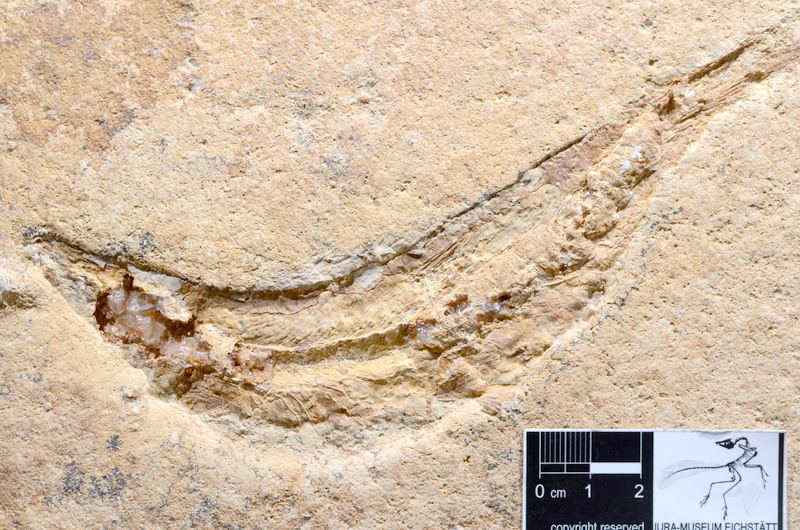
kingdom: Animalia
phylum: Chordata
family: Ascalaboidae
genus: Tharsis
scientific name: Tharsis dubius
